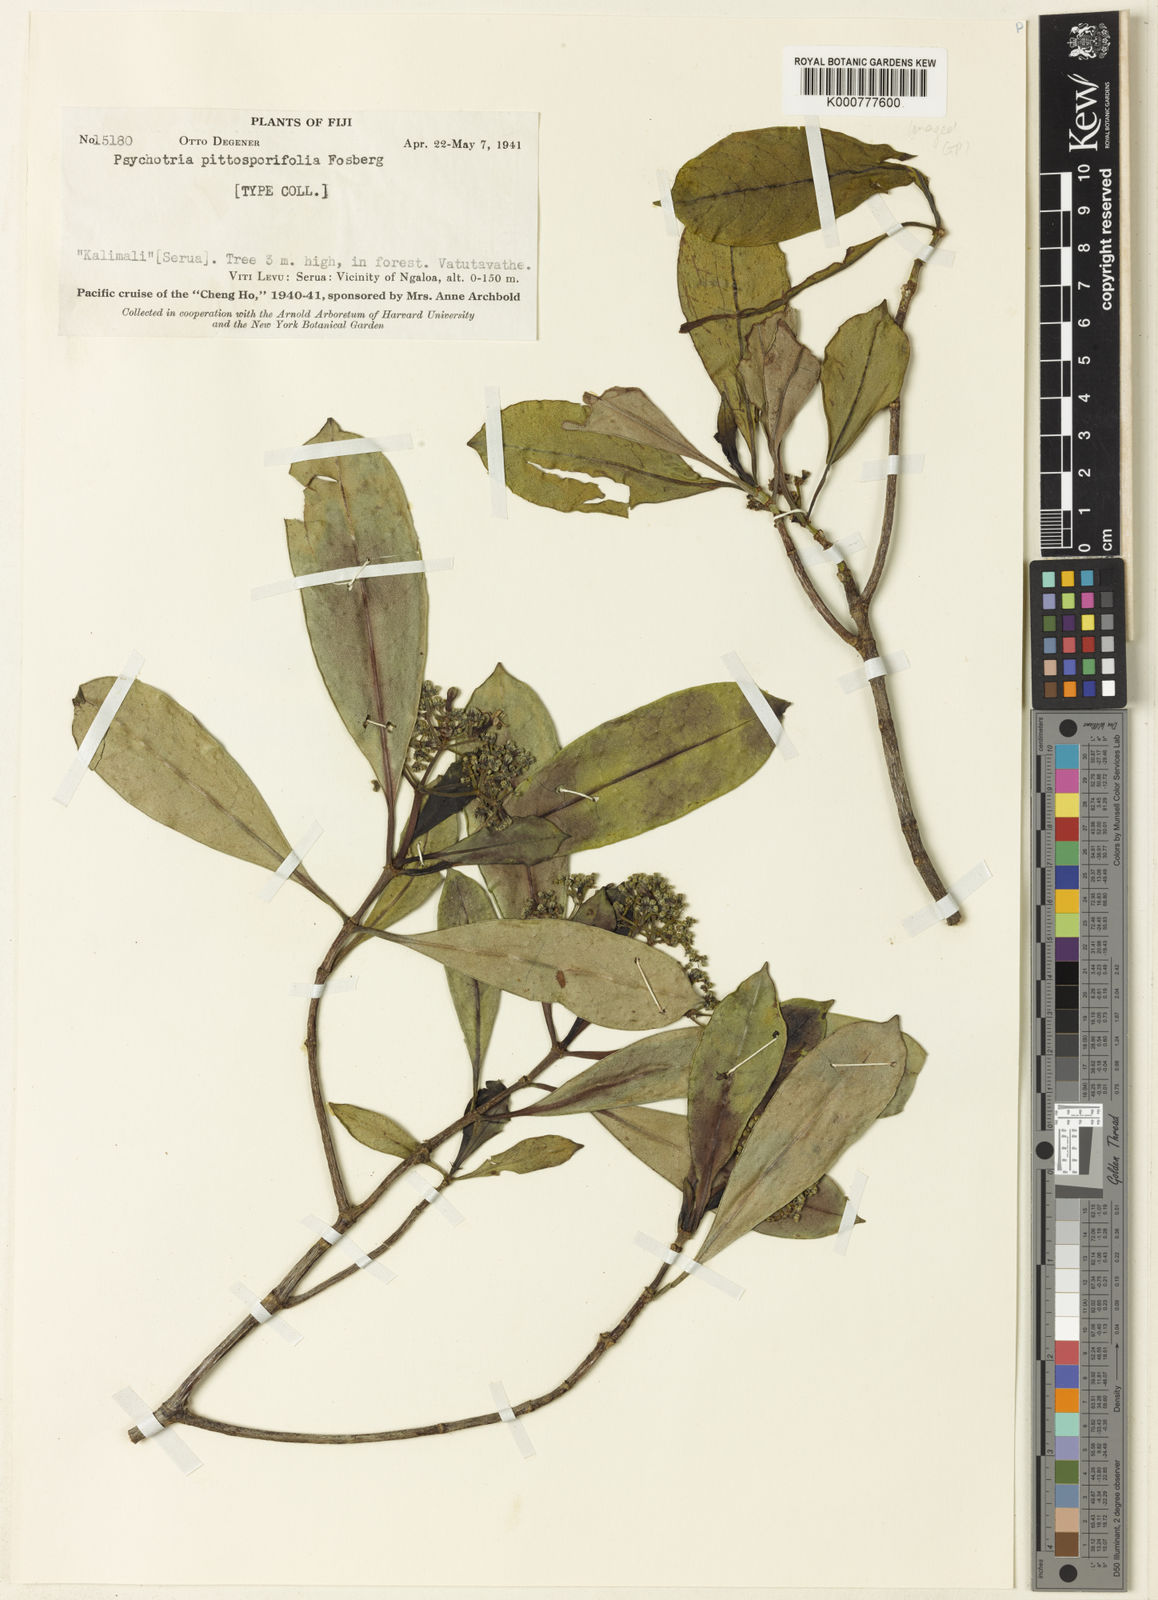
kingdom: Plantae
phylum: Tracheophyta
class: Magnoliopsida
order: Gentianales
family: Rubiaceae
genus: Psychotria
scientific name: Psychotria pittosporifolia
